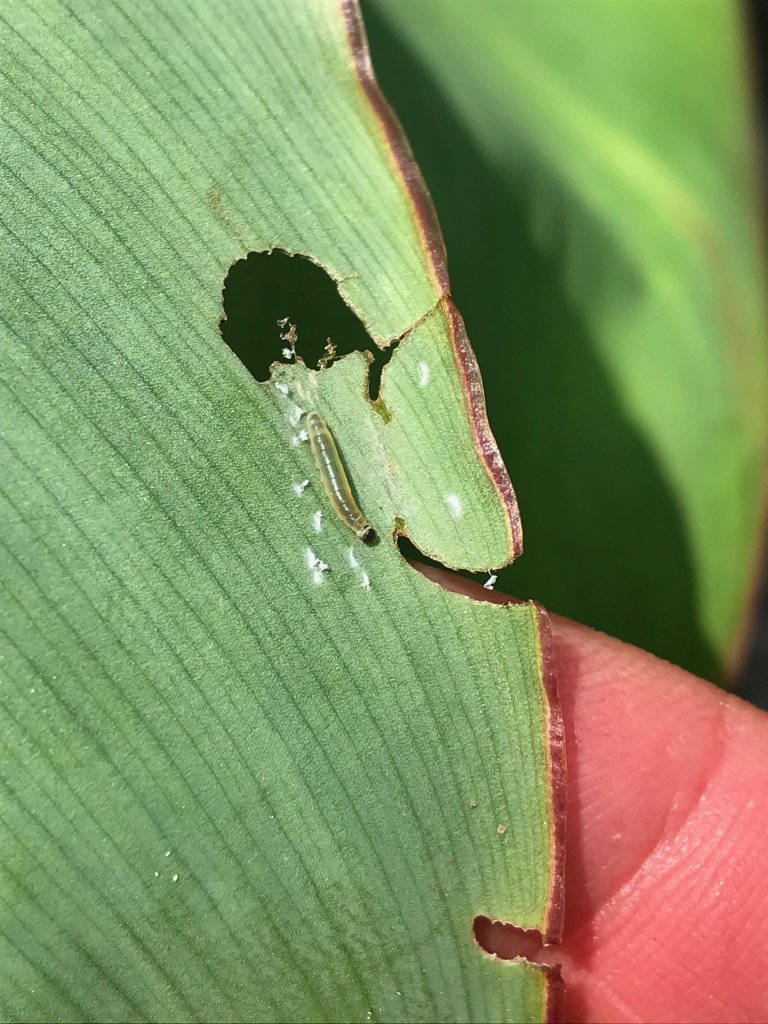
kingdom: Animalia
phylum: Arthropoda
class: Insecta
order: Lepidoptera
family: Hesperiidae
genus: Calpodes
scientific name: Calpodes ethlius
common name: Brazilian Skipper
